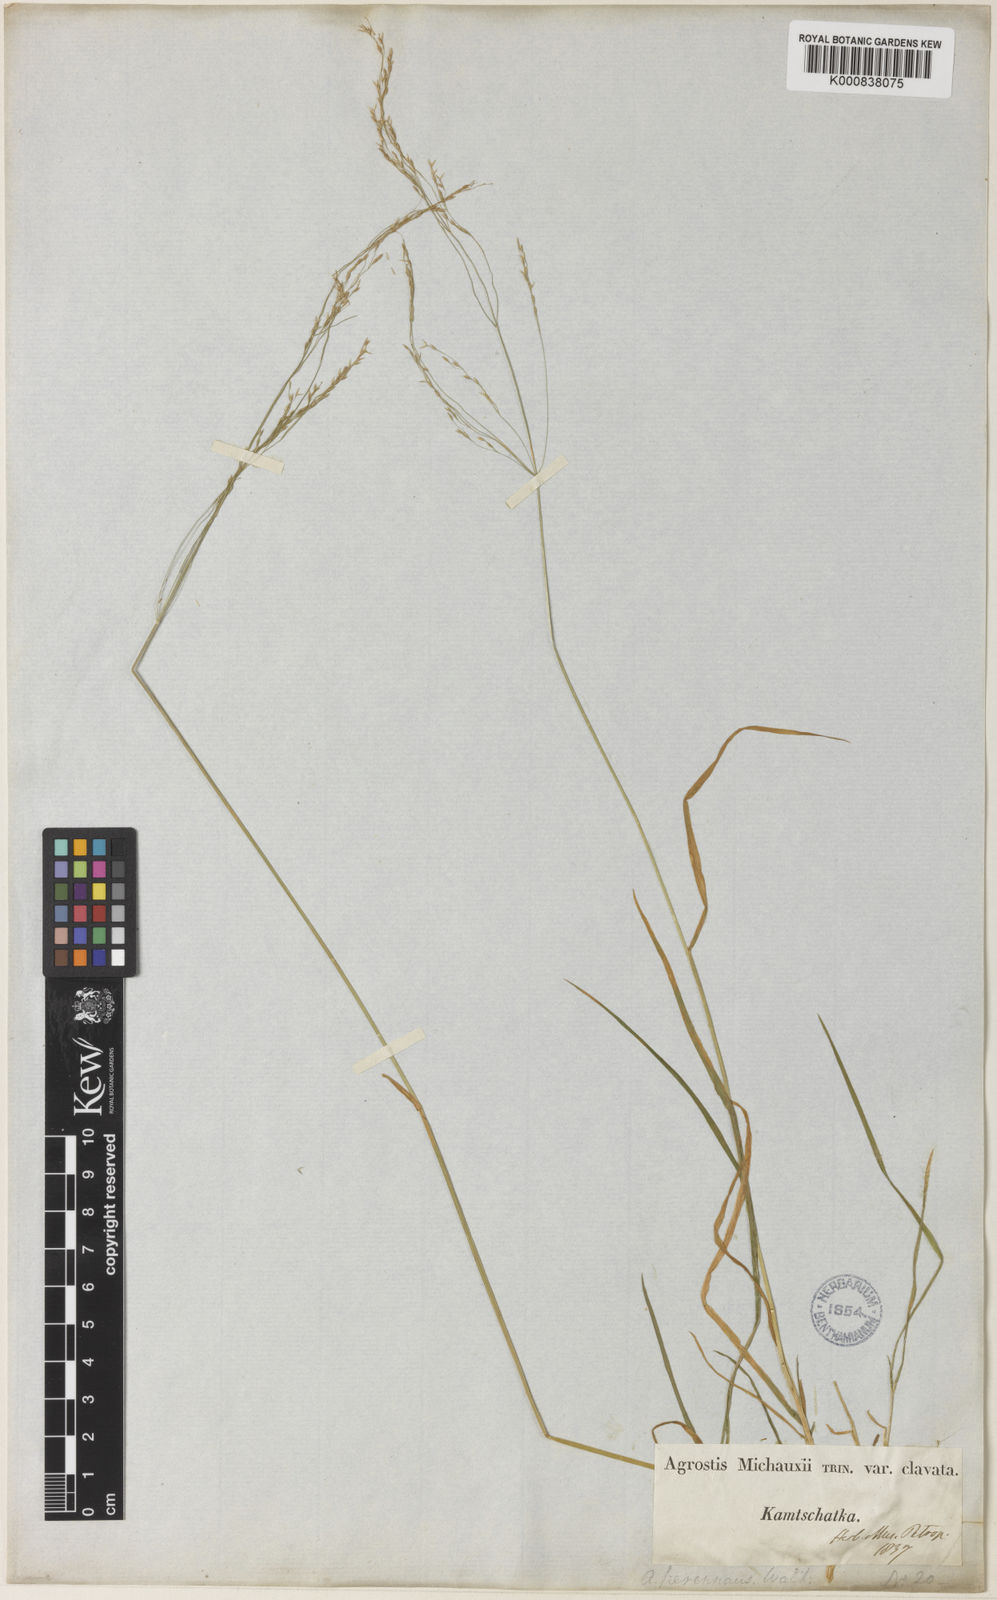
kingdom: Plantae
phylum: Tracheophyta
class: Liliopsida
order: Poales
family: Poaceae
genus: Agrostis
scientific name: Agrostis clavata
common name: Clavate bent
